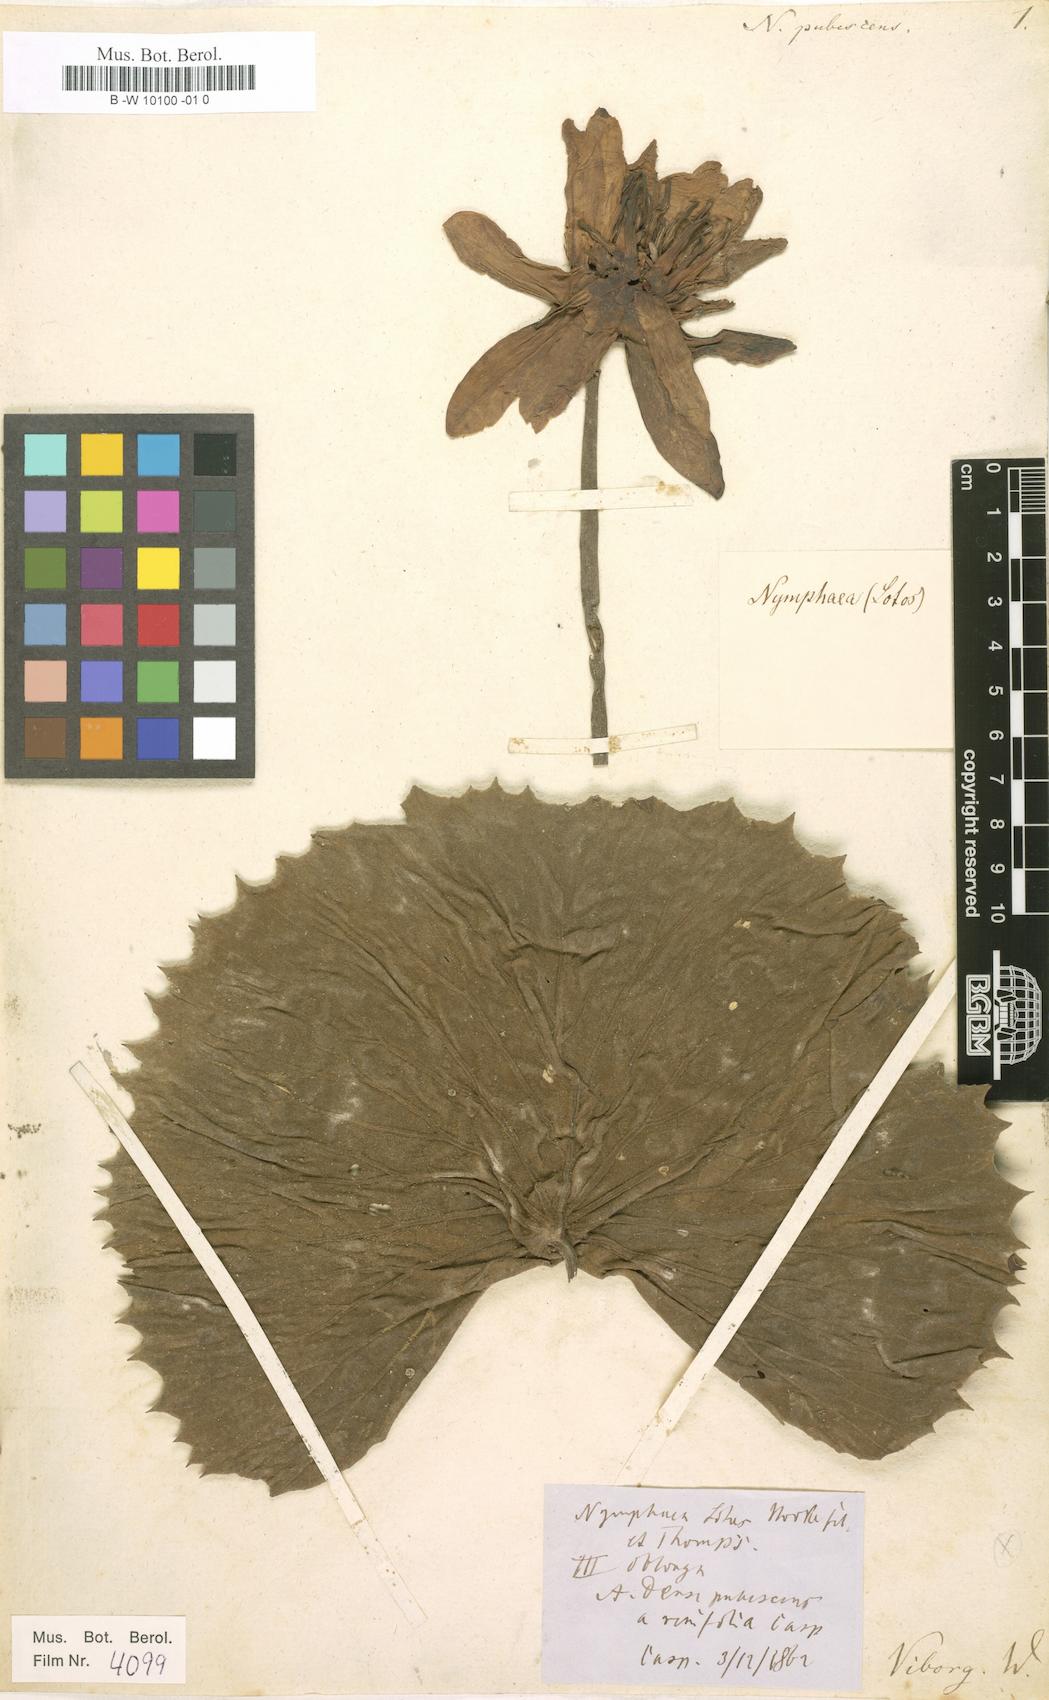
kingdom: Plantae
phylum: Tracheophyta
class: Magnoliopsida
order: Nymphaeales
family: Nymphaeaceae
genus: Nymphaea
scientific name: Nymphaea pubescens
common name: Hairy water lily
